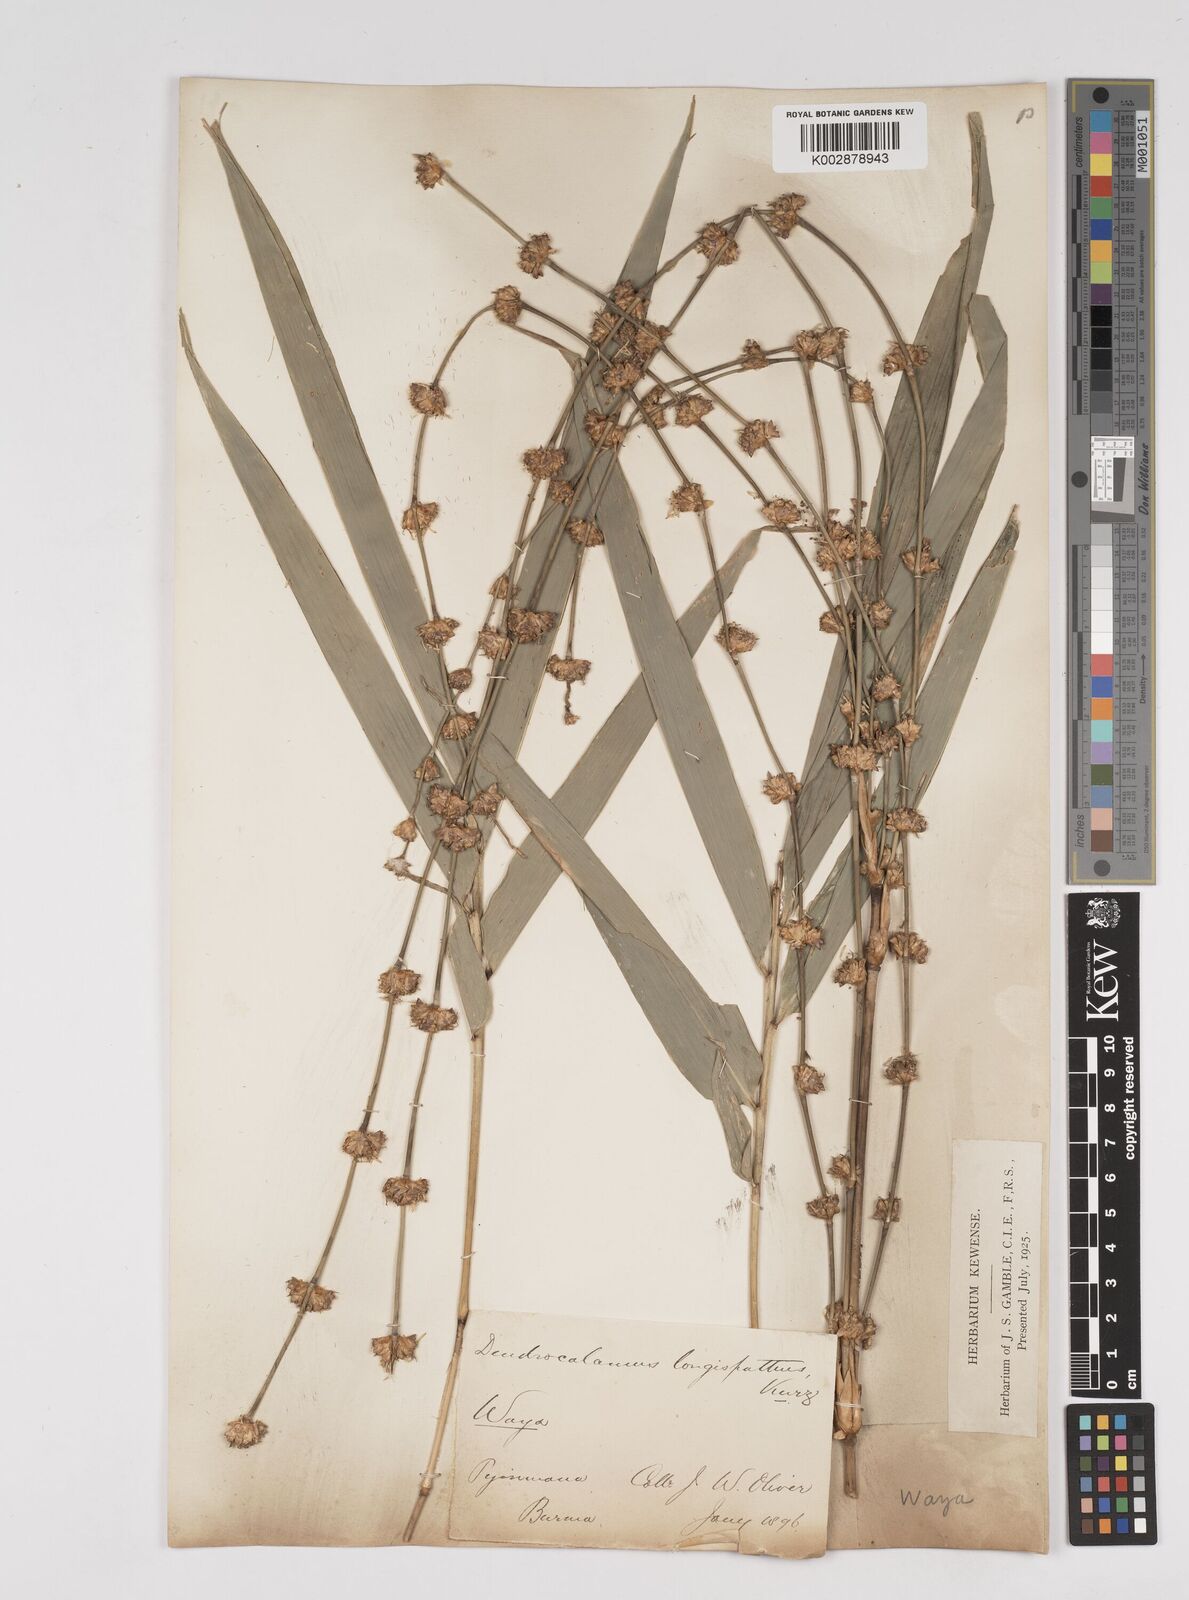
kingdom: Plantae
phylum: Tracheophyta
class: Liliopsida
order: Poales
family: Poaceae
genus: Dendrocalamus
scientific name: Dendrocalamus longispathus
